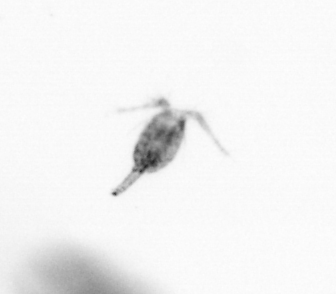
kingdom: Animalia
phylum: Arthropoda
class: Copepoda
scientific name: Copepoda
